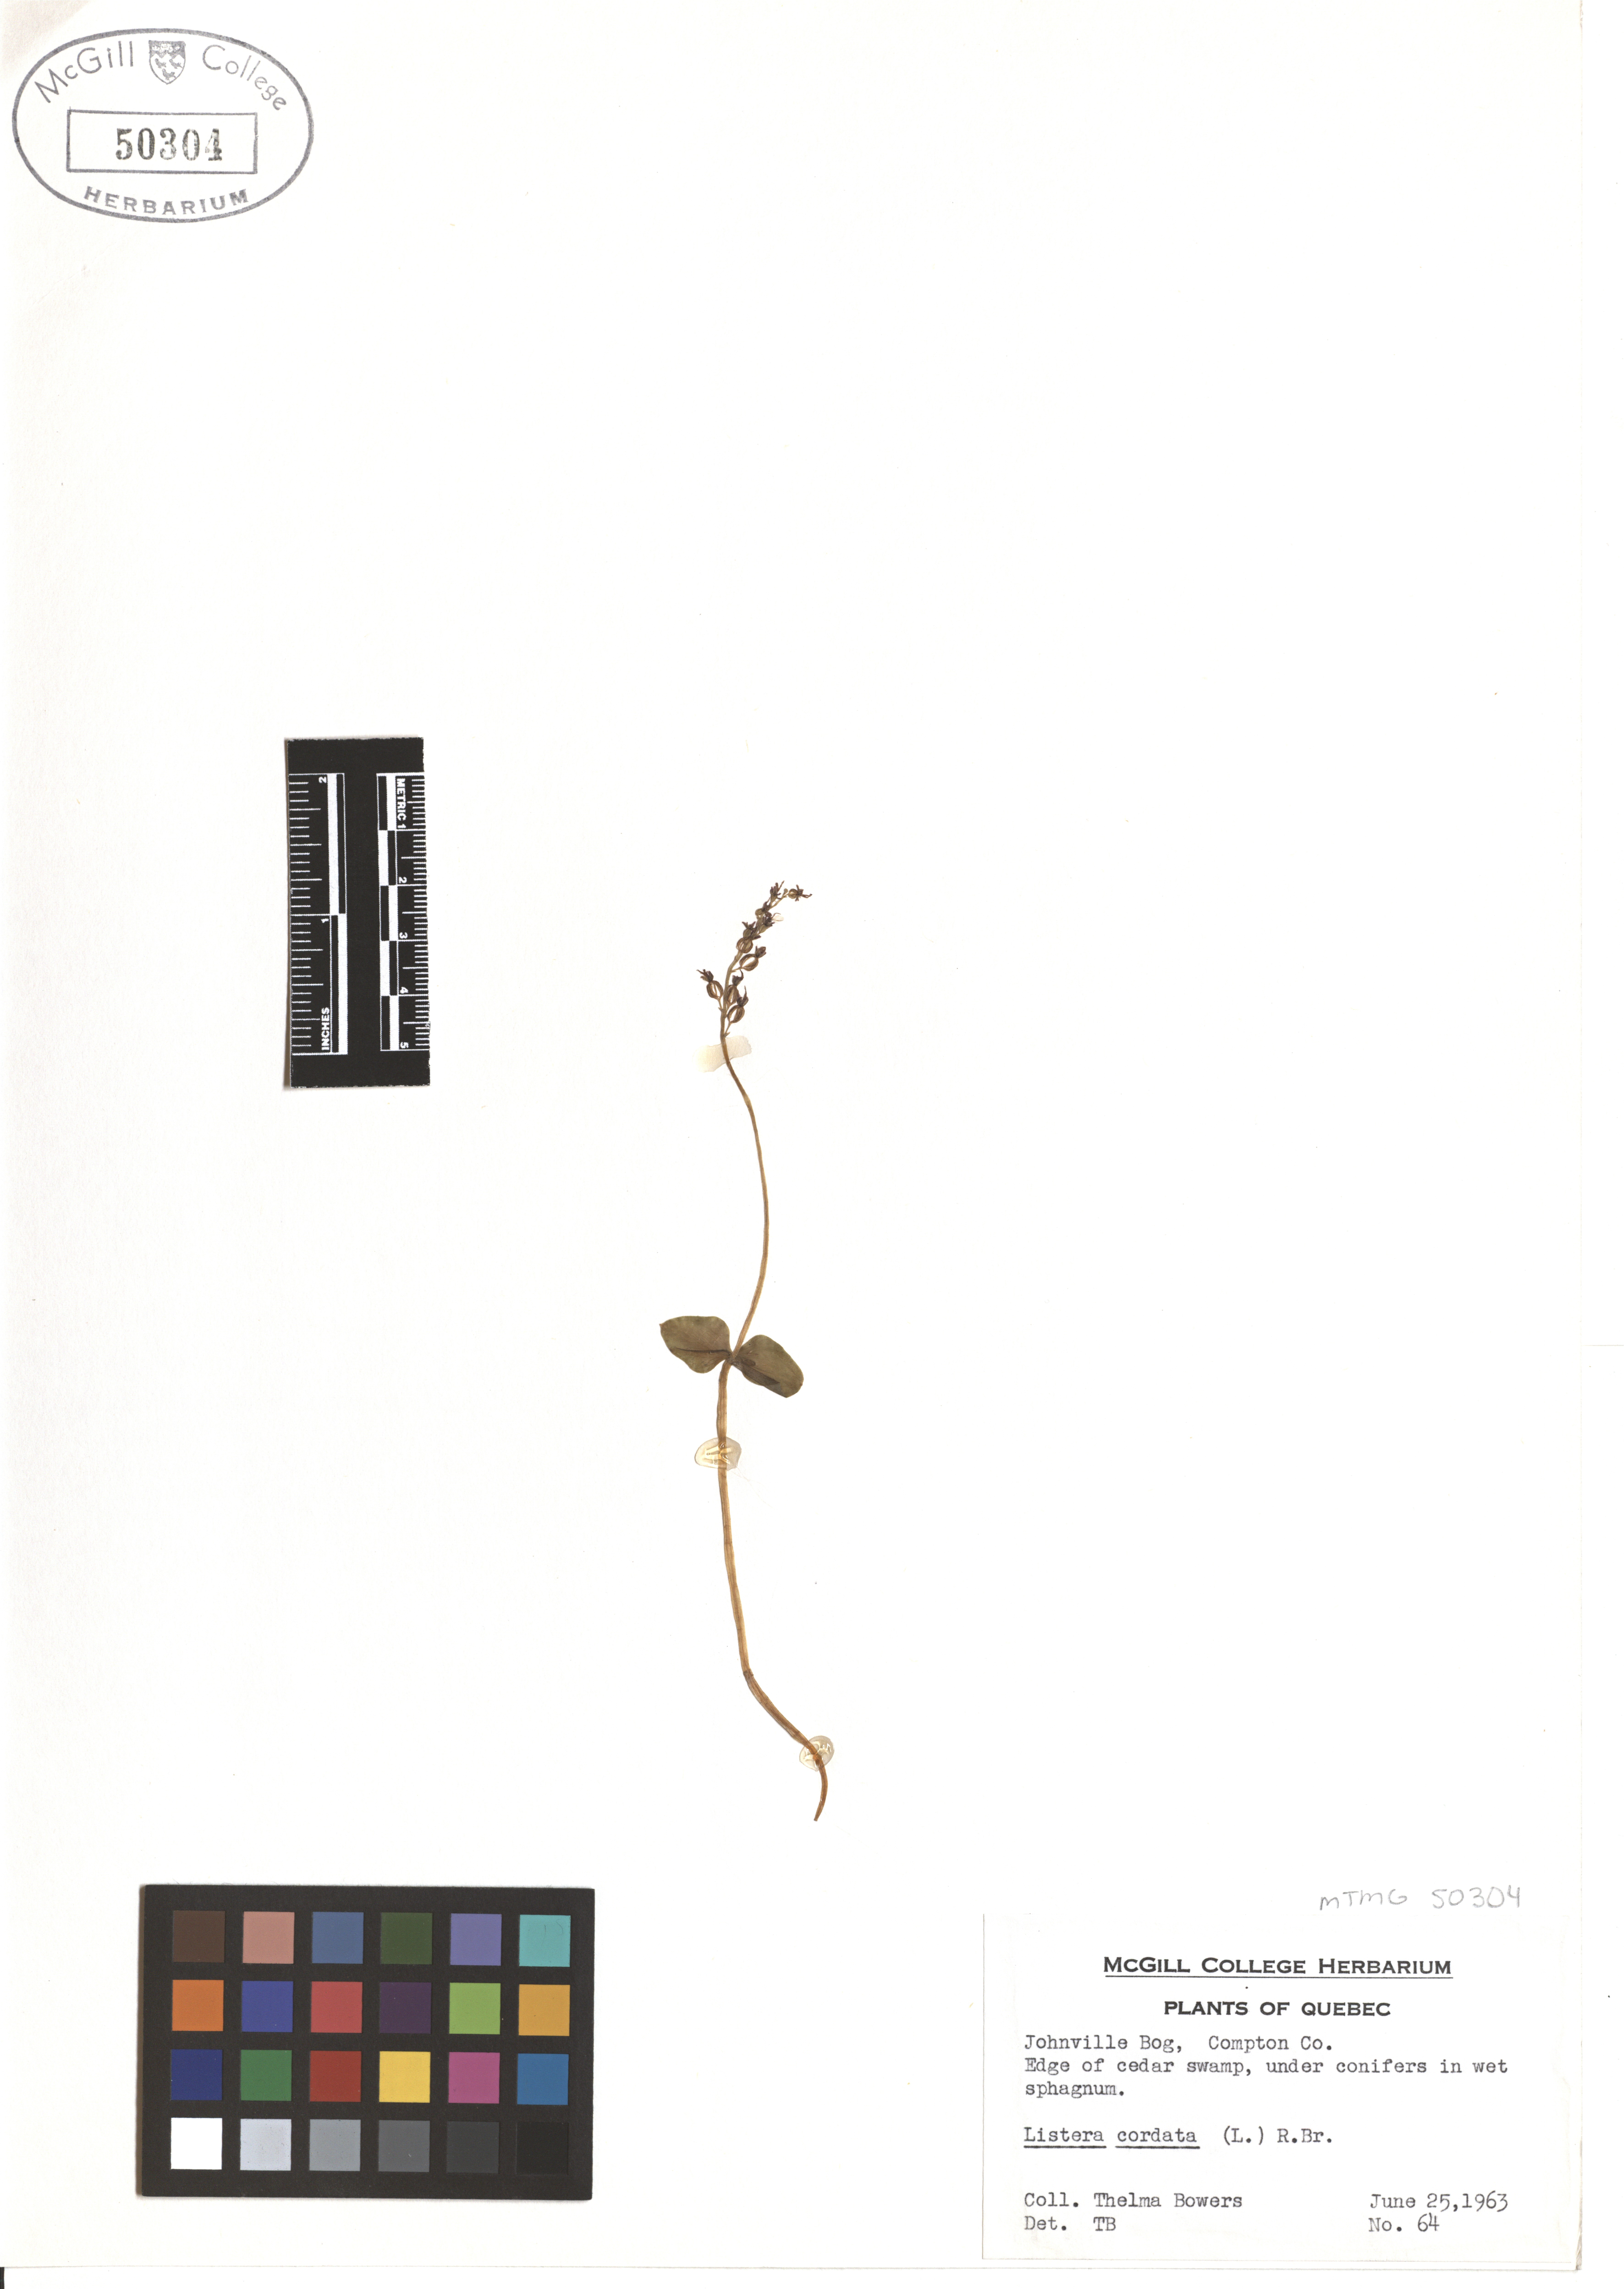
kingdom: Plantae
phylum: Tracheophyta
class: Liliopsida
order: Asparagales
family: Orchidaceae
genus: Neottia
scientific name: Neottia cordata
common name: Lesser twayblade
